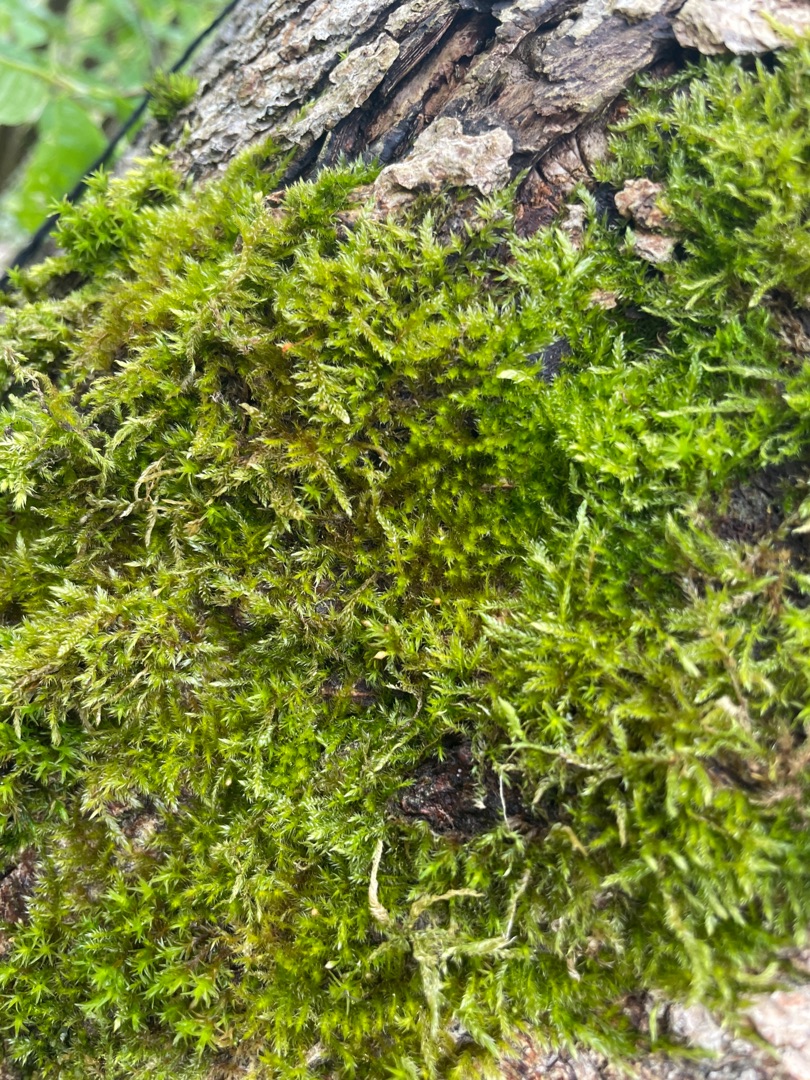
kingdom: Plantae
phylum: Bryophyta
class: Bryopsida
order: Hypnales
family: Hypnaceae
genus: Hypnum
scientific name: Hypnum
